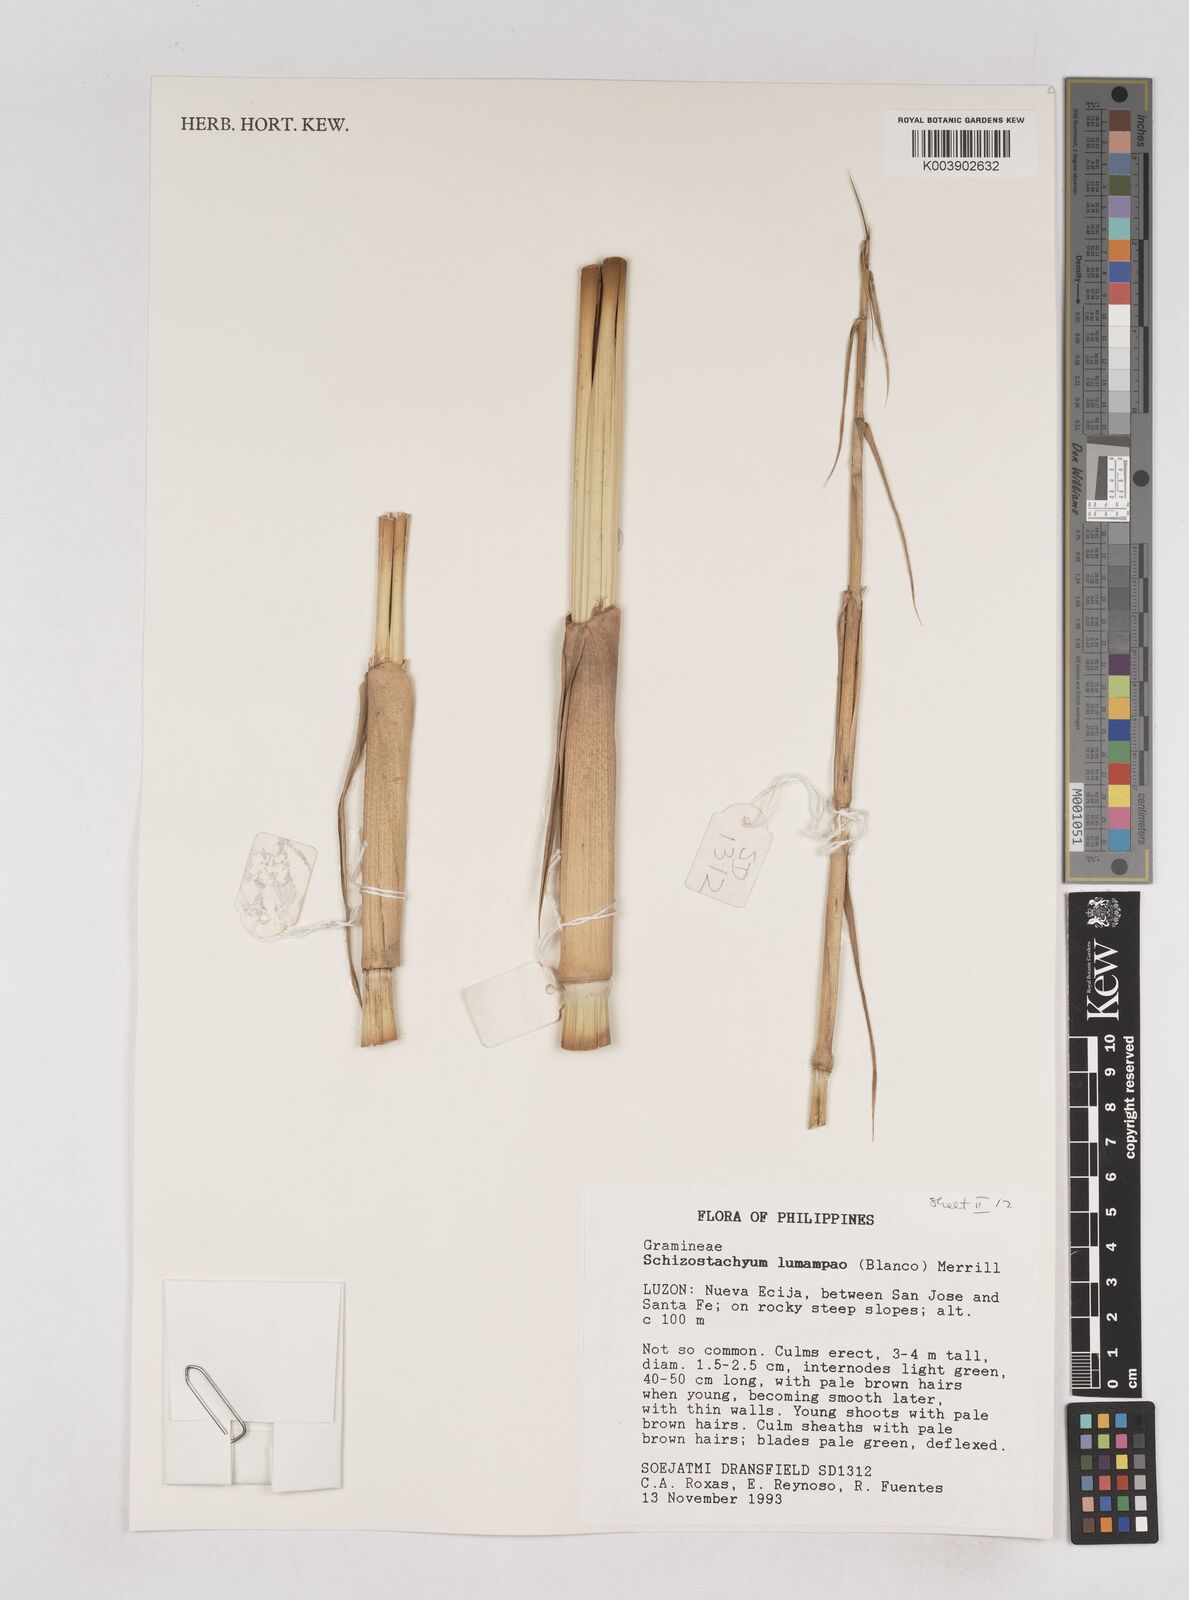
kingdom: Plantae
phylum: Tracheophyta
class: Liliopsida
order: Poales
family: Poaceae
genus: Schizostachyum
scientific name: Schizostachyum lumampao
